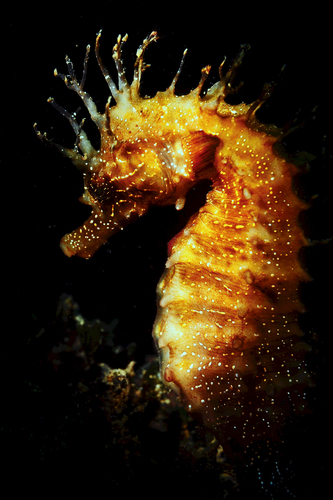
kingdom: Animalia
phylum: Chordata
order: Syngnathiformes
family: Syngnathidae
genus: Hippocampus
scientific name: Hippocampus guttulatus
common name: Long-snouted seahorse
